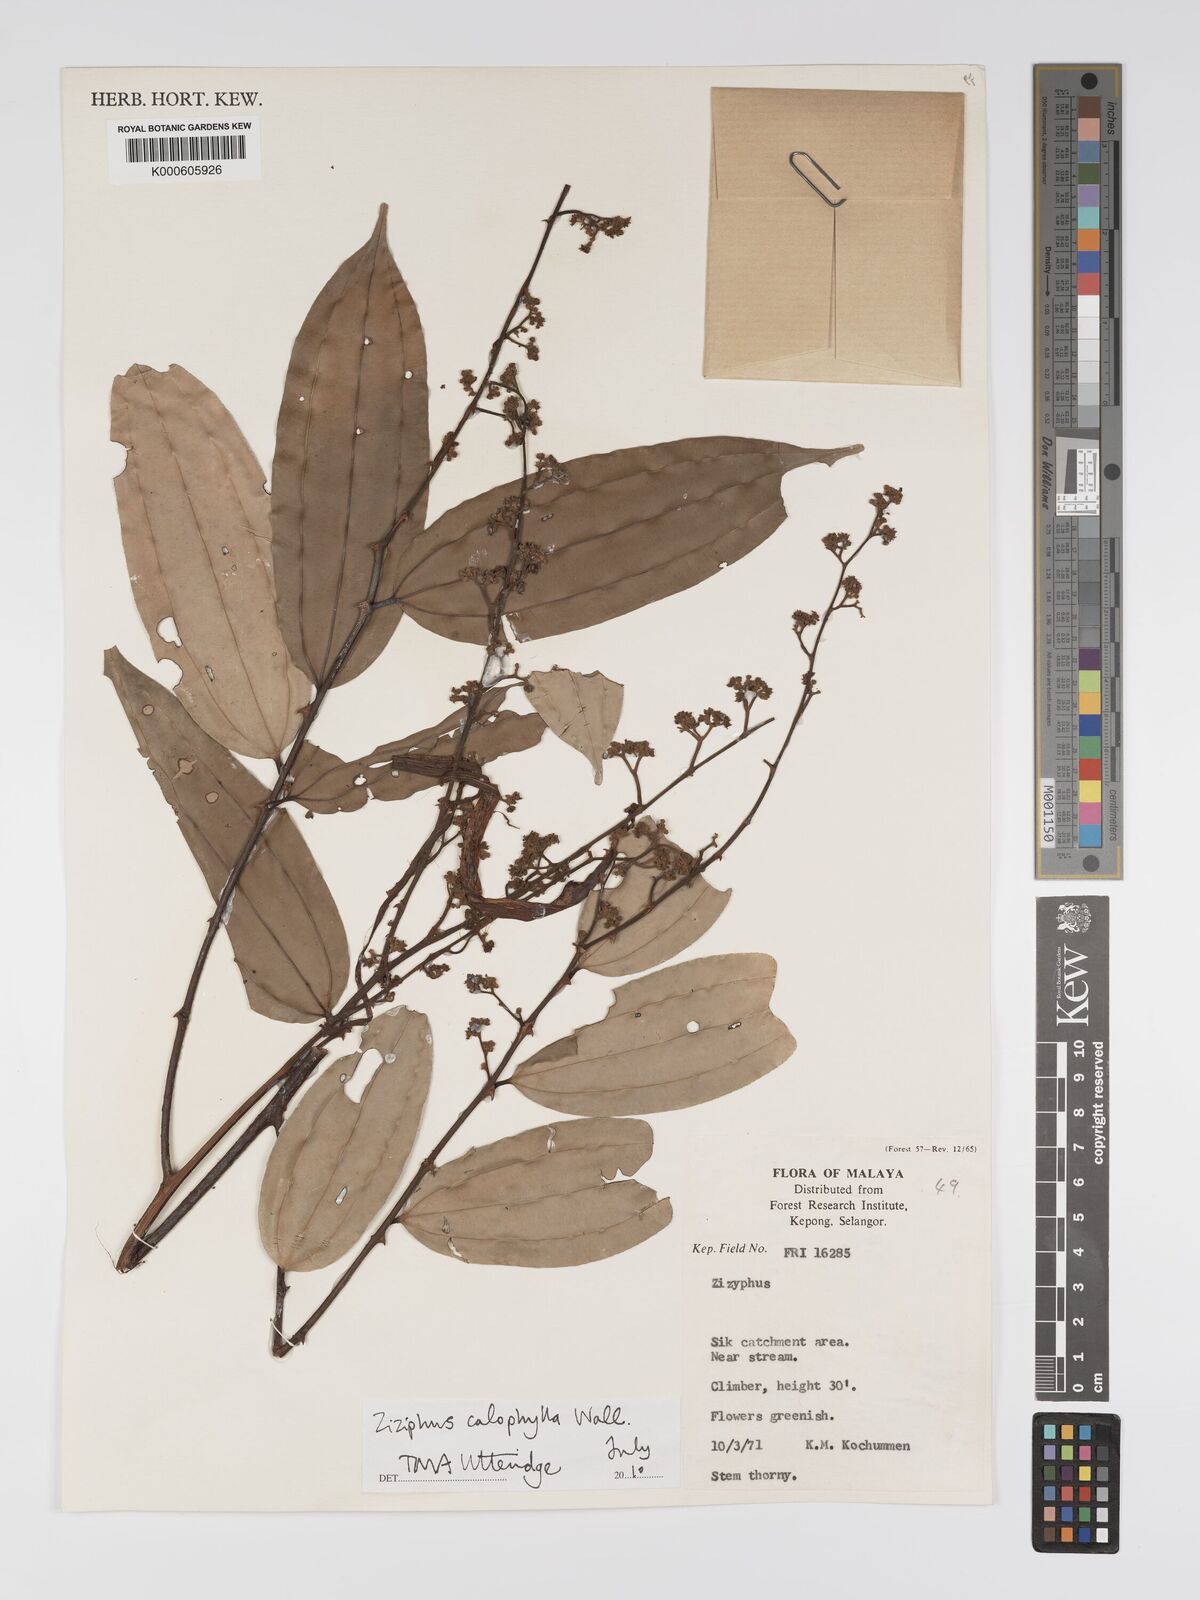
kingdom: Plantae
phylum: Tracheophyta
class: Magnoliopsida
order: Rosales
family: Rhamnaceae
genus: Ziziphus
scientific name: Ziziphus calophylla
